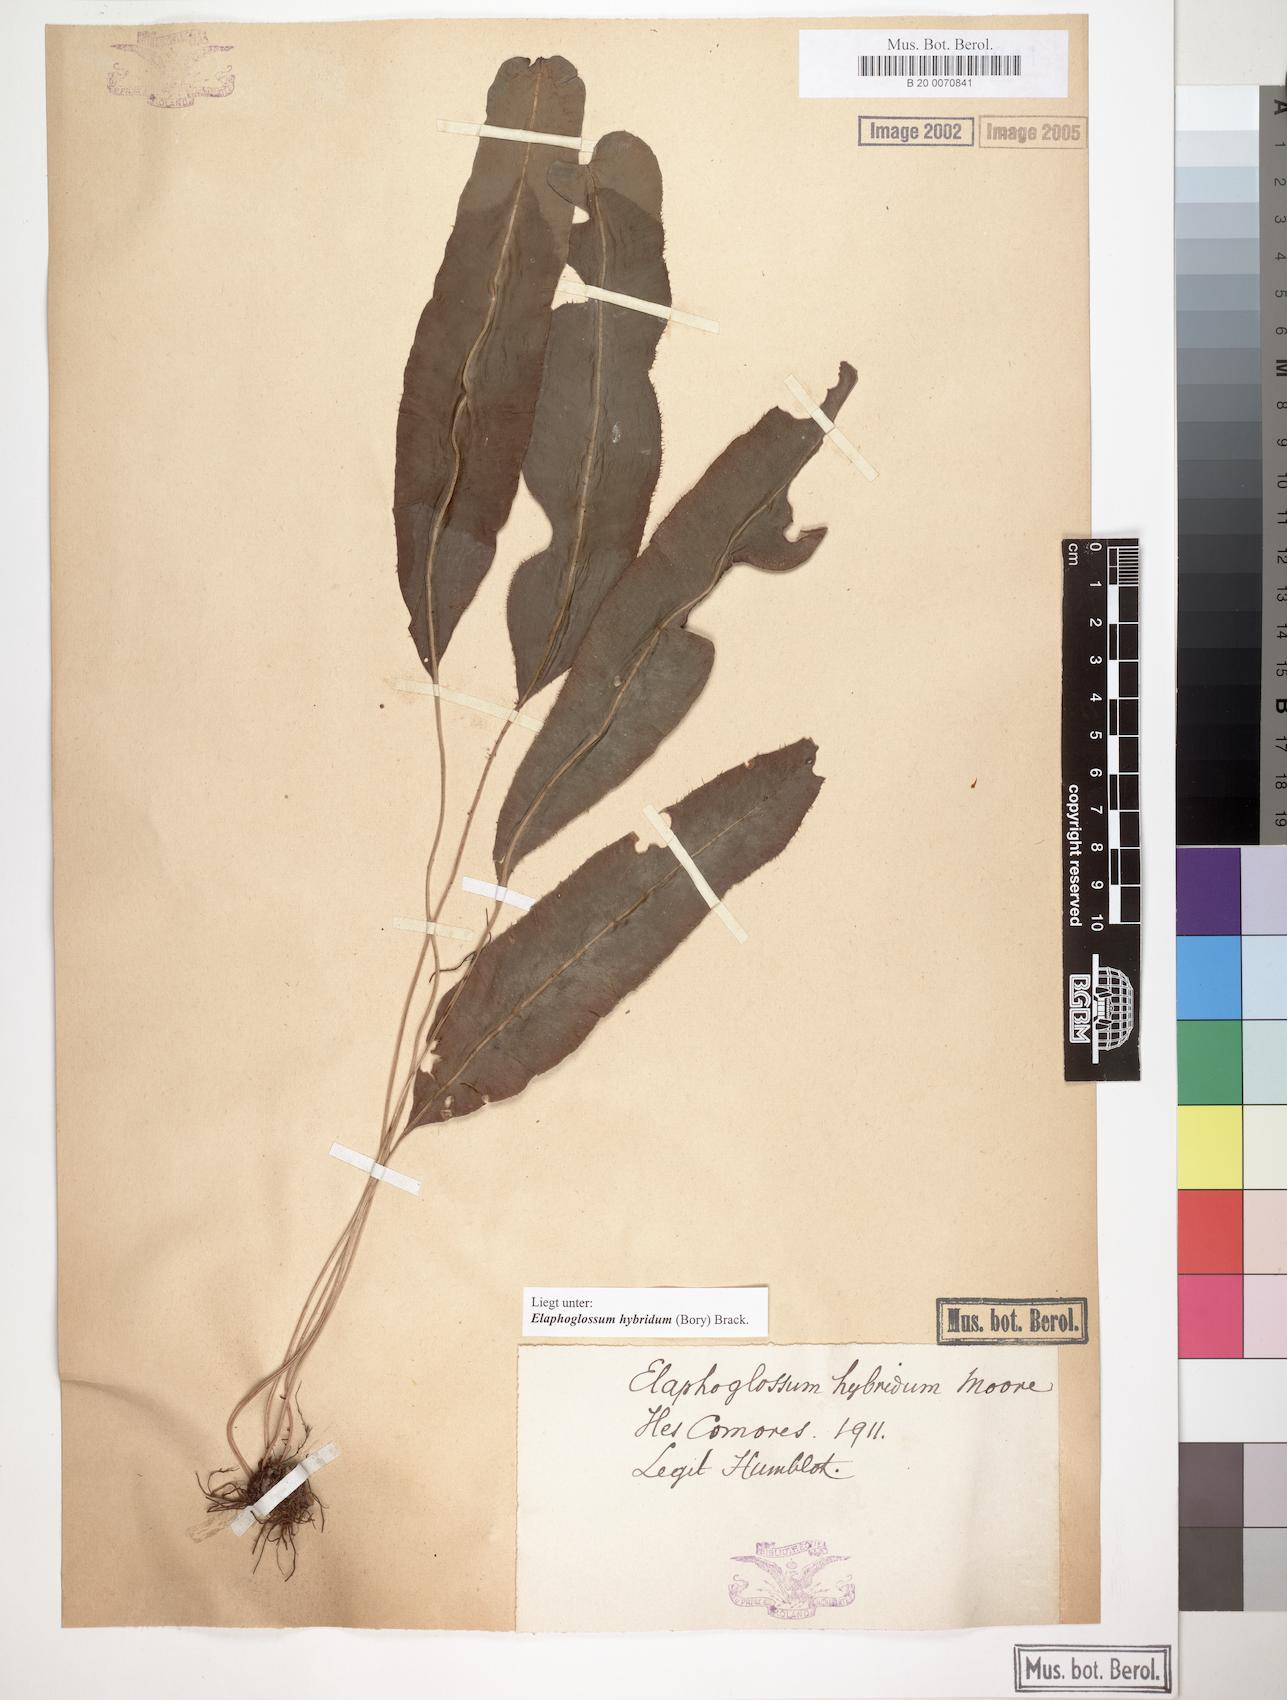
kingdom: Plantae
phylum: Tracheophyta
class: Polypodiopsida
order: Polypodiales
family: Dryopteridaceae
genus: Elaphoglossum
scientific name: Elaphoglossum hybridum
